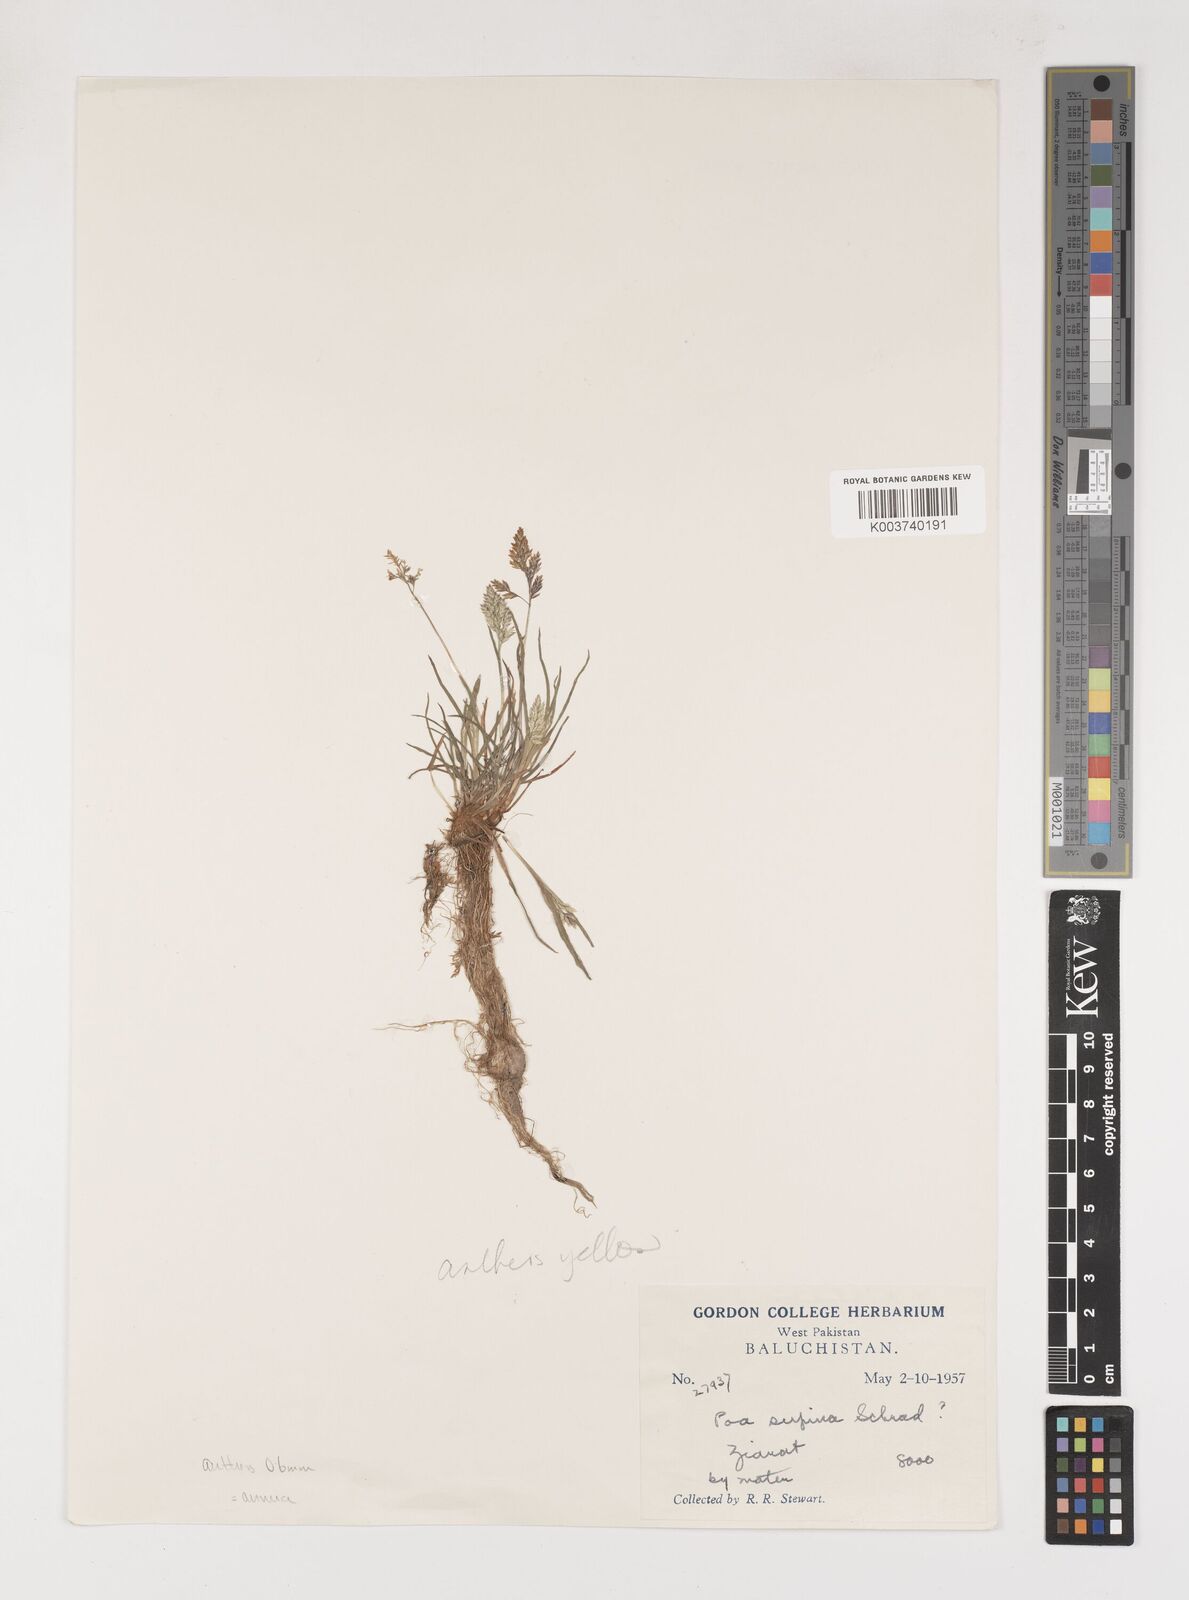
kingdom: Plantae
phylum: Tracheophyta
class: Liliopsida
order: Poales
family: Poaceae
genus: Poa
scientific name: Poa annua
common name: Annual bluegrass
